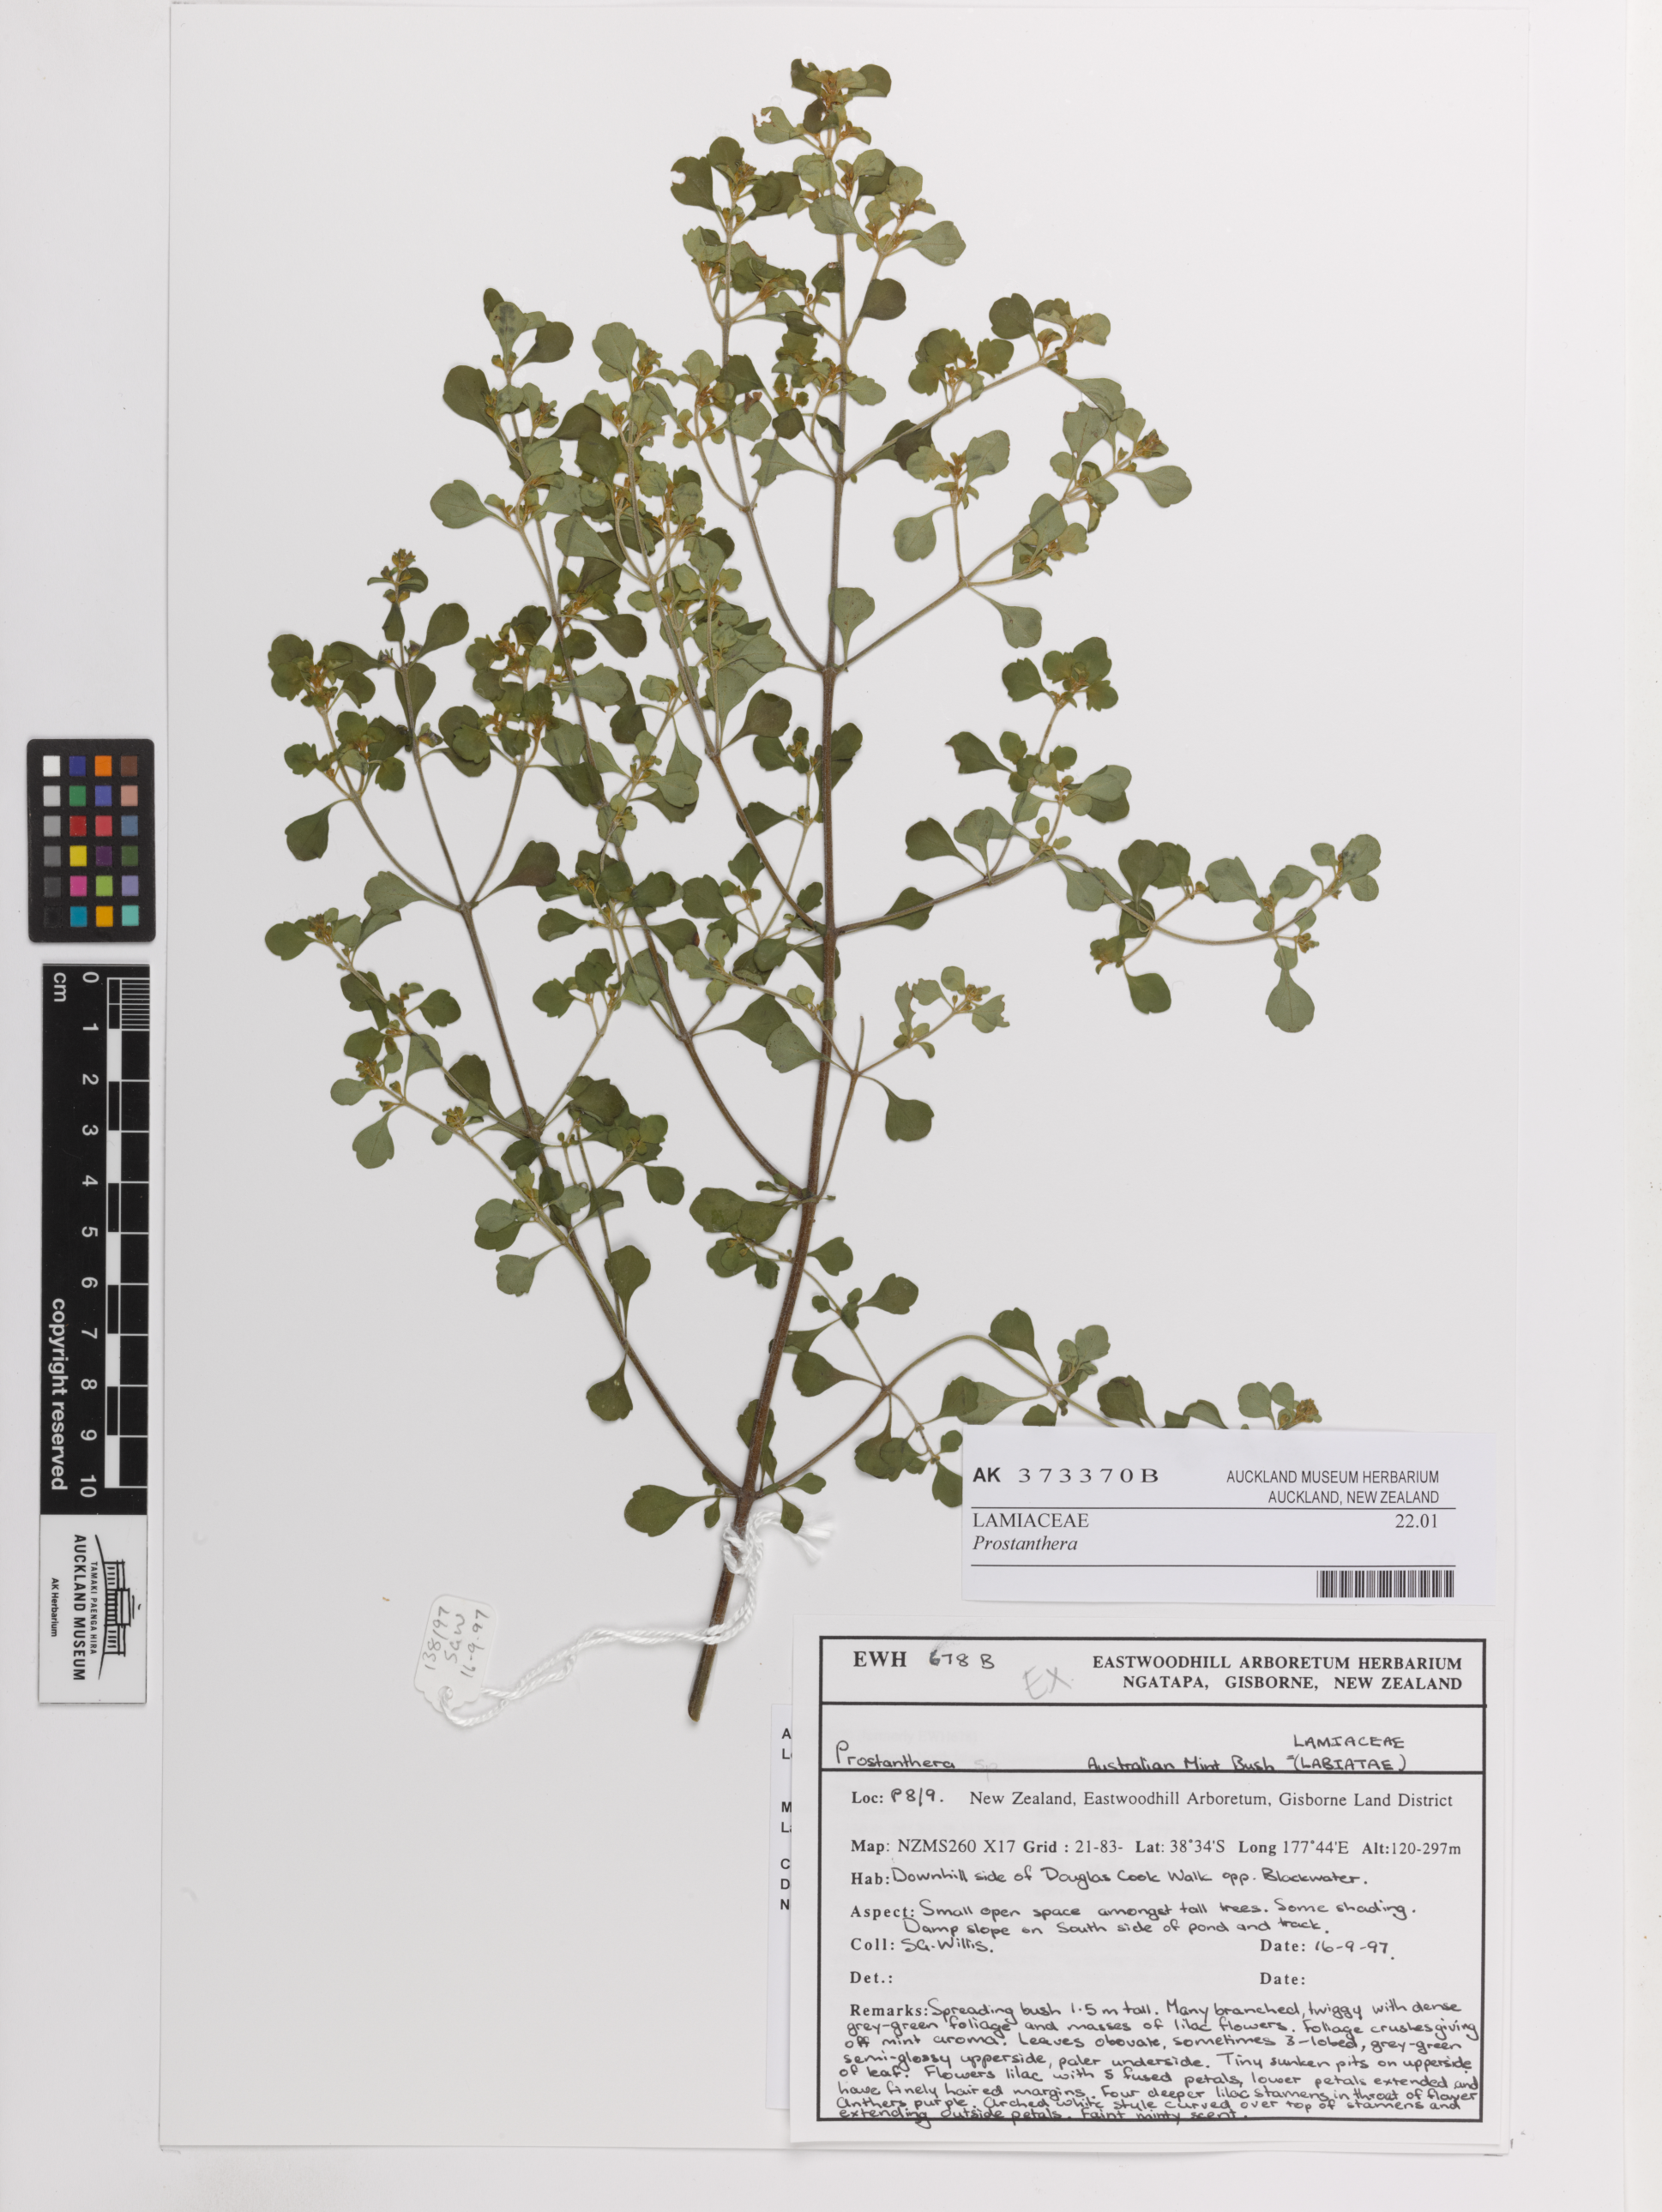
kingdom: Plantae
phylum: Tracheophyta
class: Magnoliopsida
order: Lamiales
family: Lamiaceae
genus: Prostanthera
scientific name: Prostanthera
